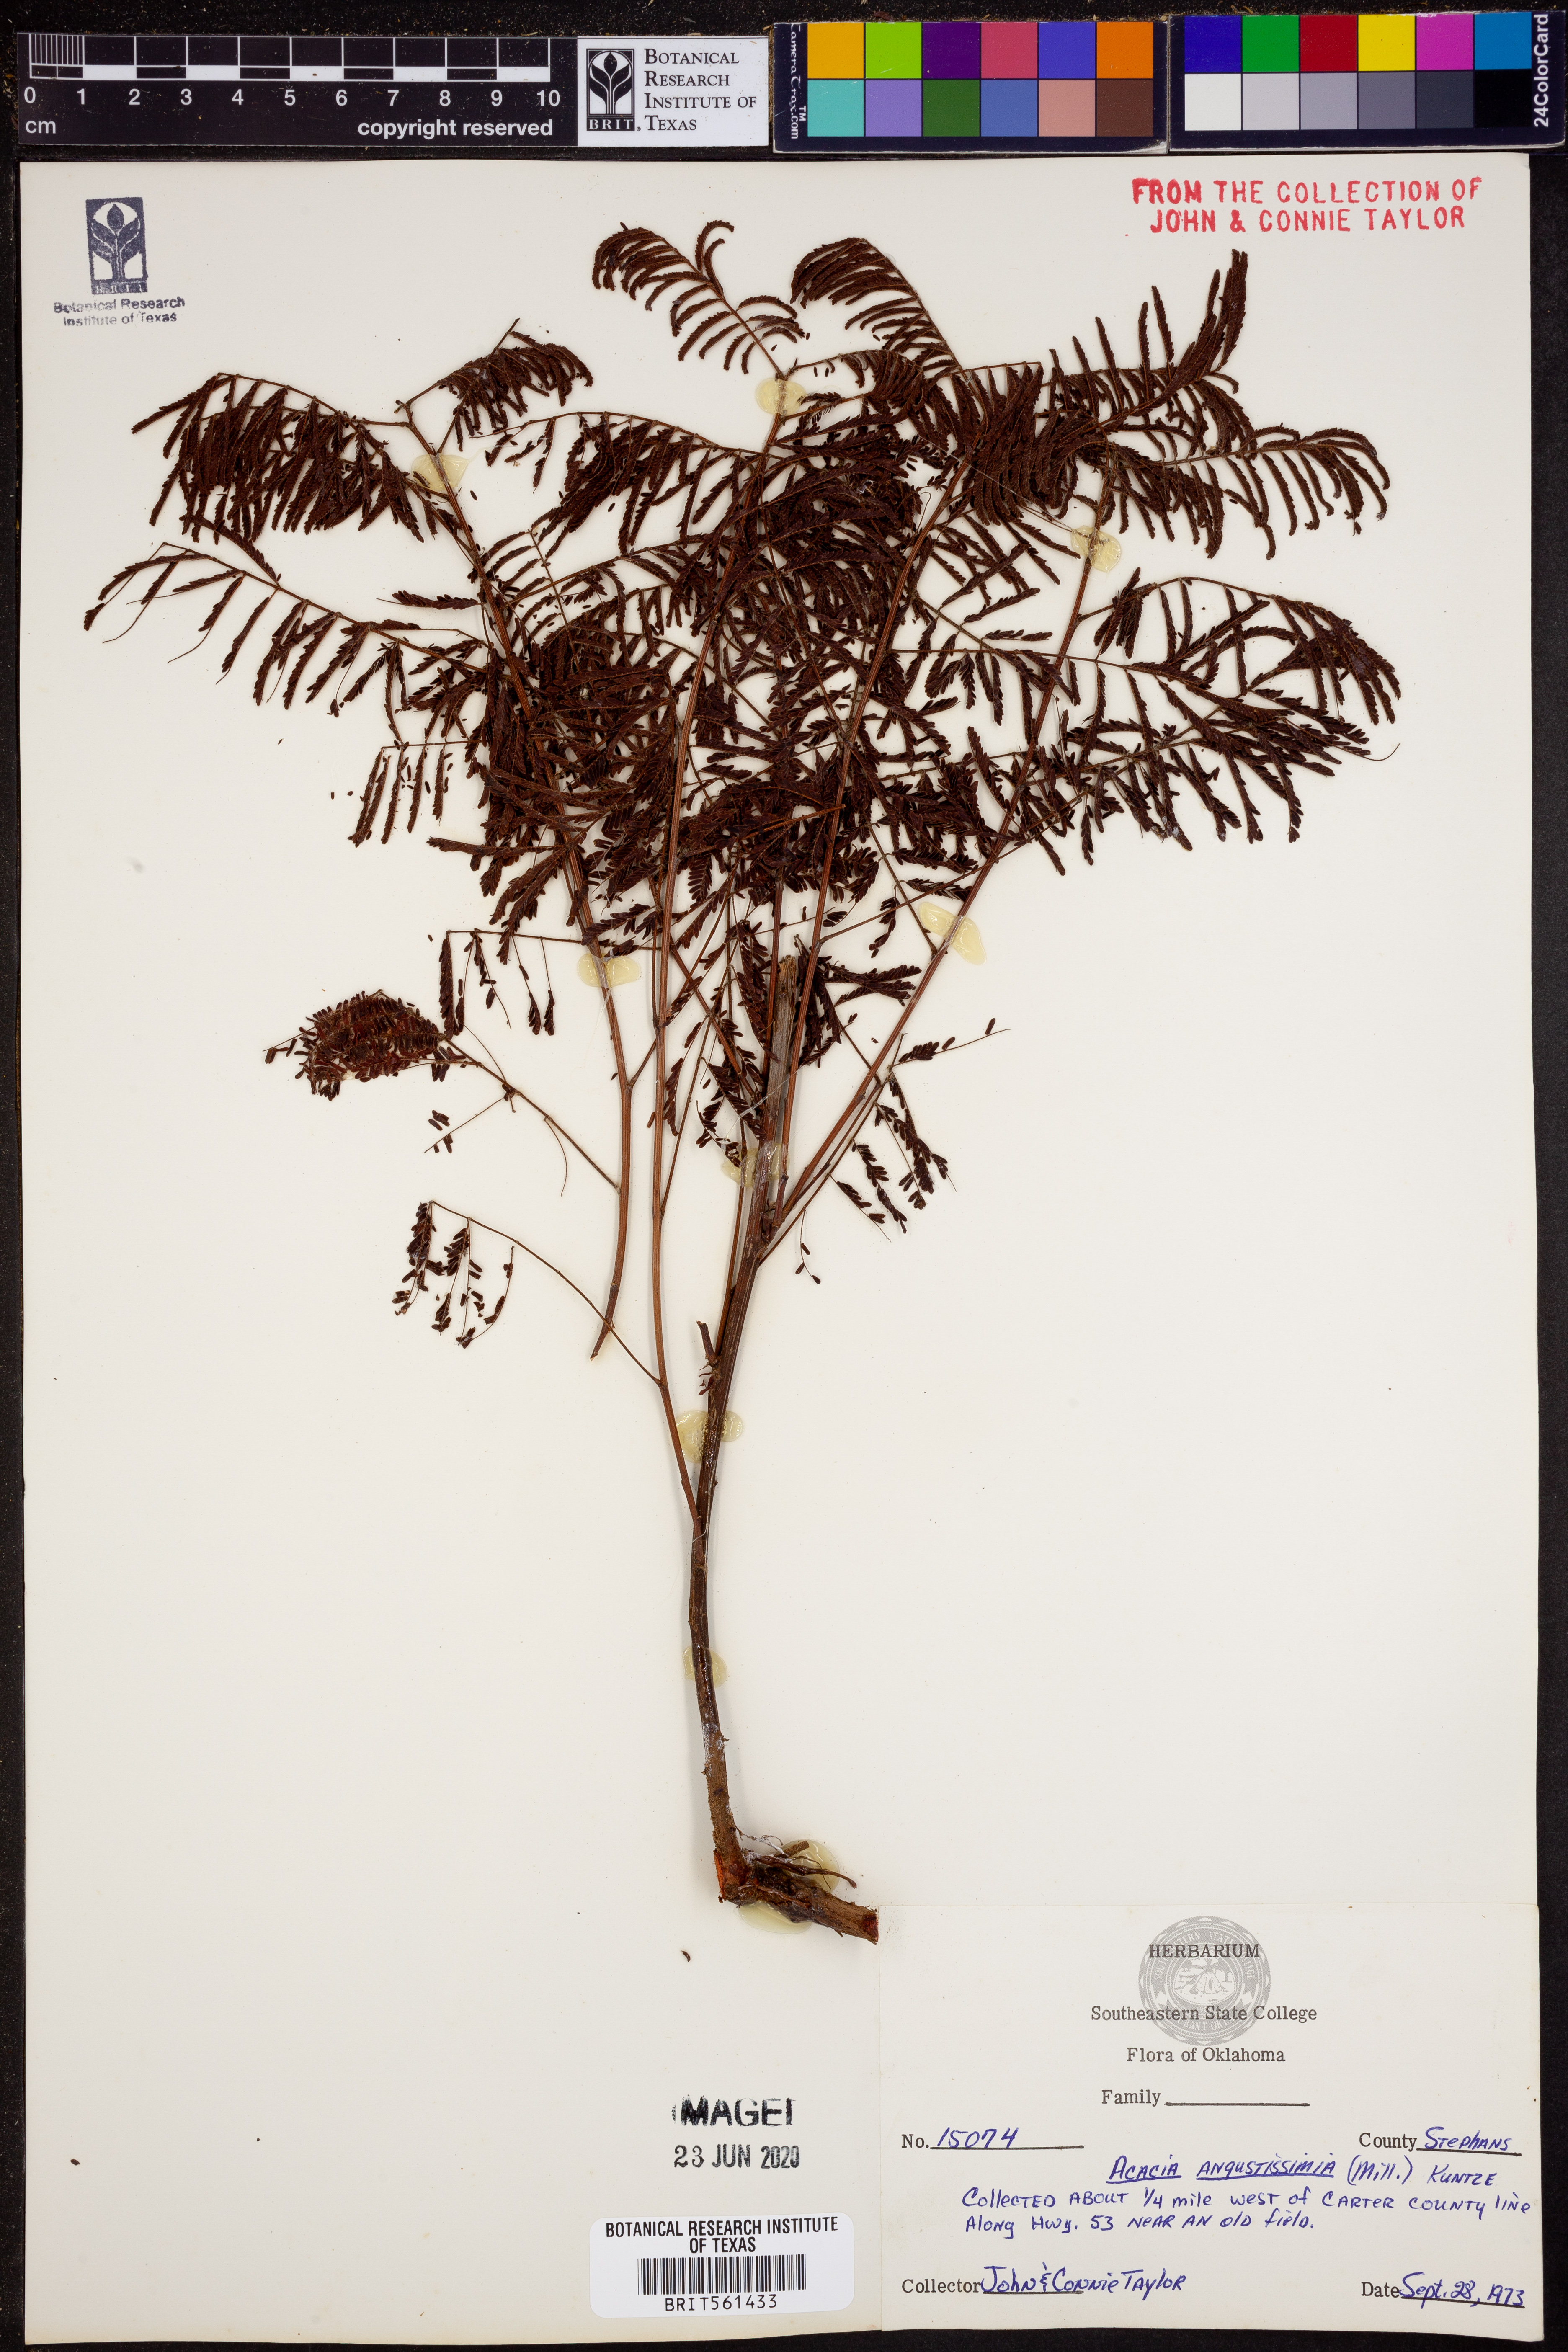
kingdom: Plantae
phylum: Tracheophyta
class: Magnoliopsida
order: Fabales
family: Fabaceae
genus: Acaciella
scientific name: Acaciella angustissima
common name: Prairie acacia
